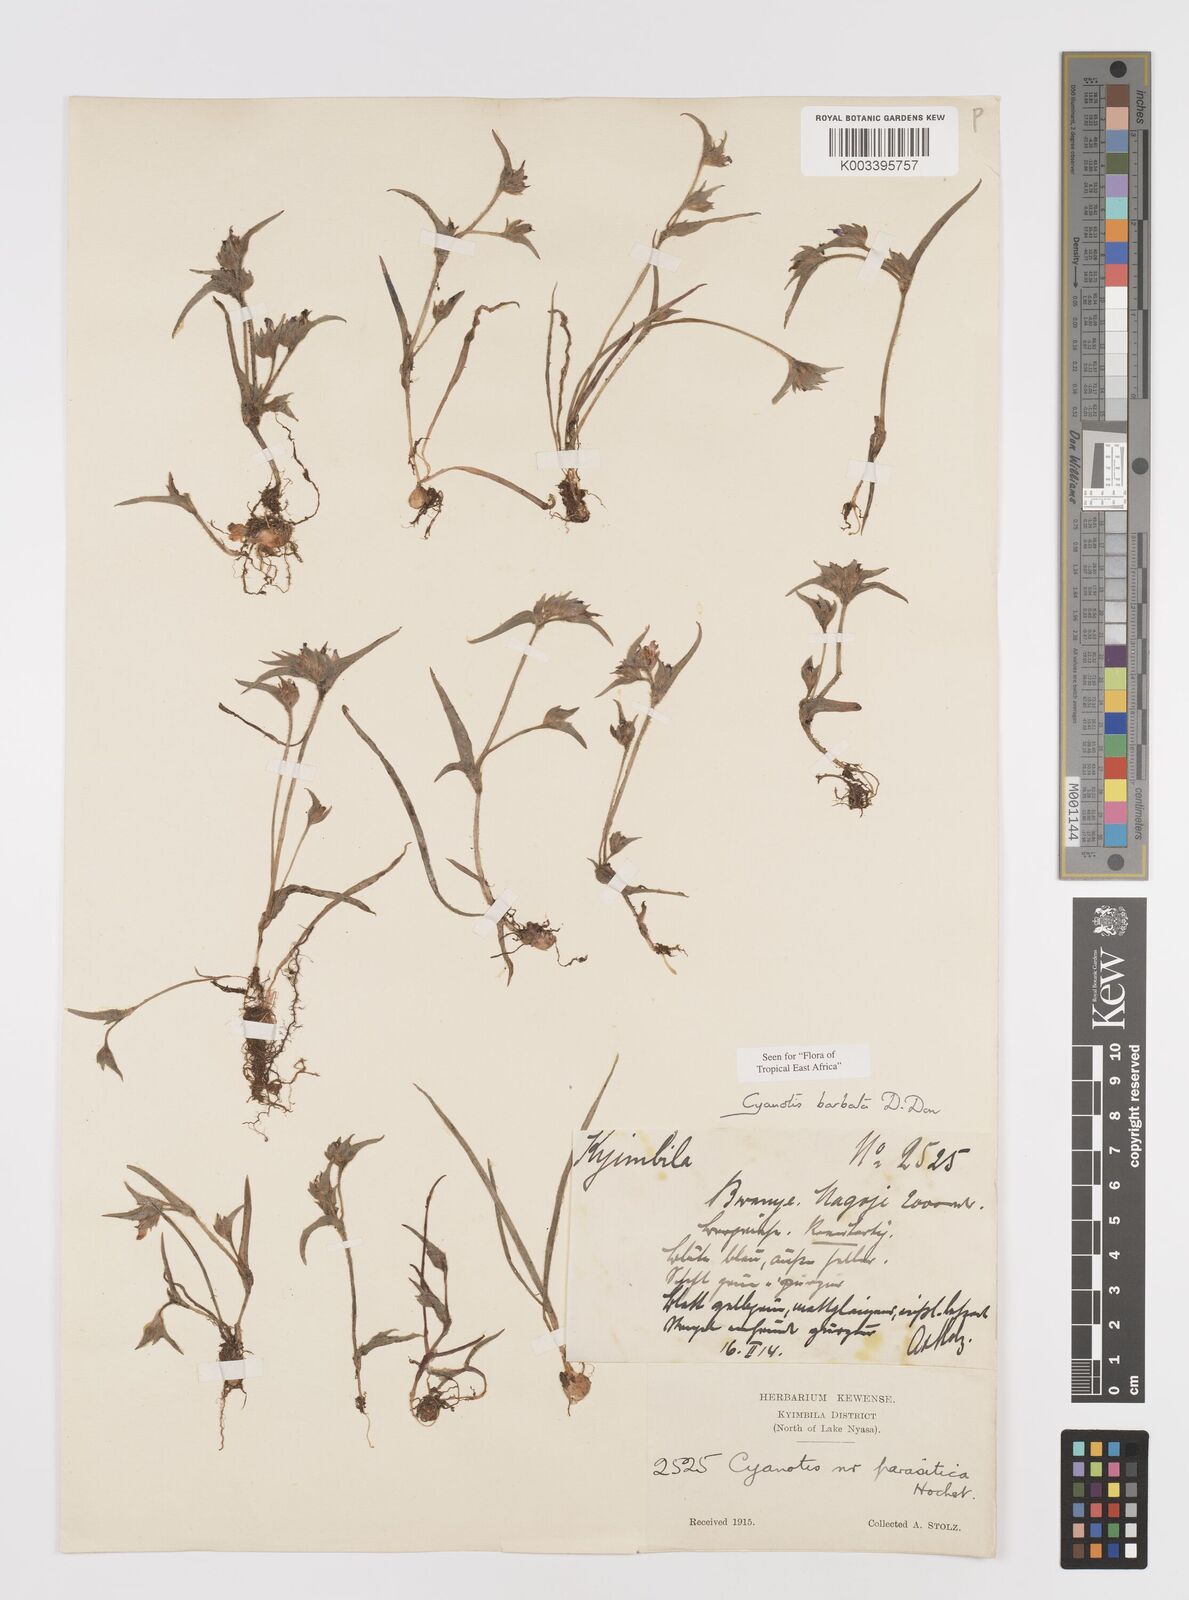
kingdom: Plantae
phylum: Tracheophyta
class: Liliopsida
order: Commelinales
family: Commelinaceae
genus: Cyanotis
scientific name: Cyanotis vaga
